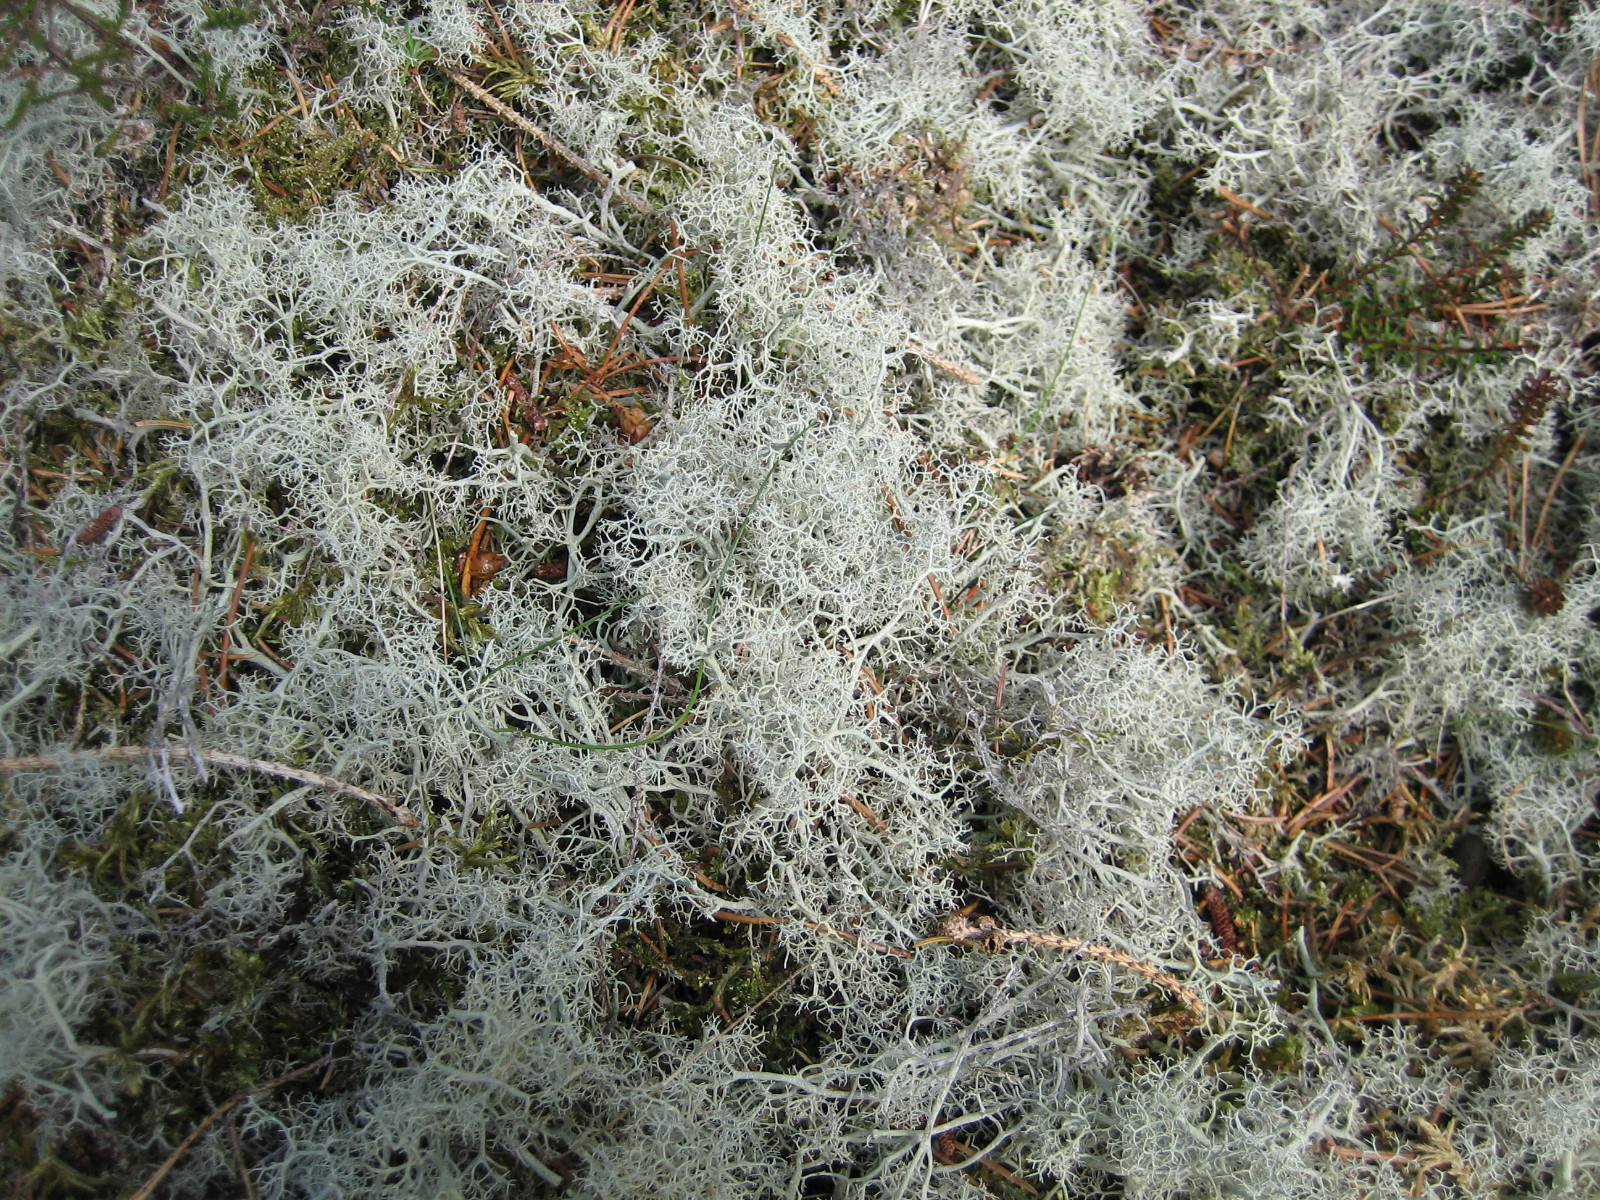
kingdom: Fungi
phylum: Ascomycota
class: Lecanoromycetes
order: Lecanorales
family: Cladoniaceae
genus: Cladonia
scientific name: Cladonia portentosa
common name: hede-rensdyrlav
